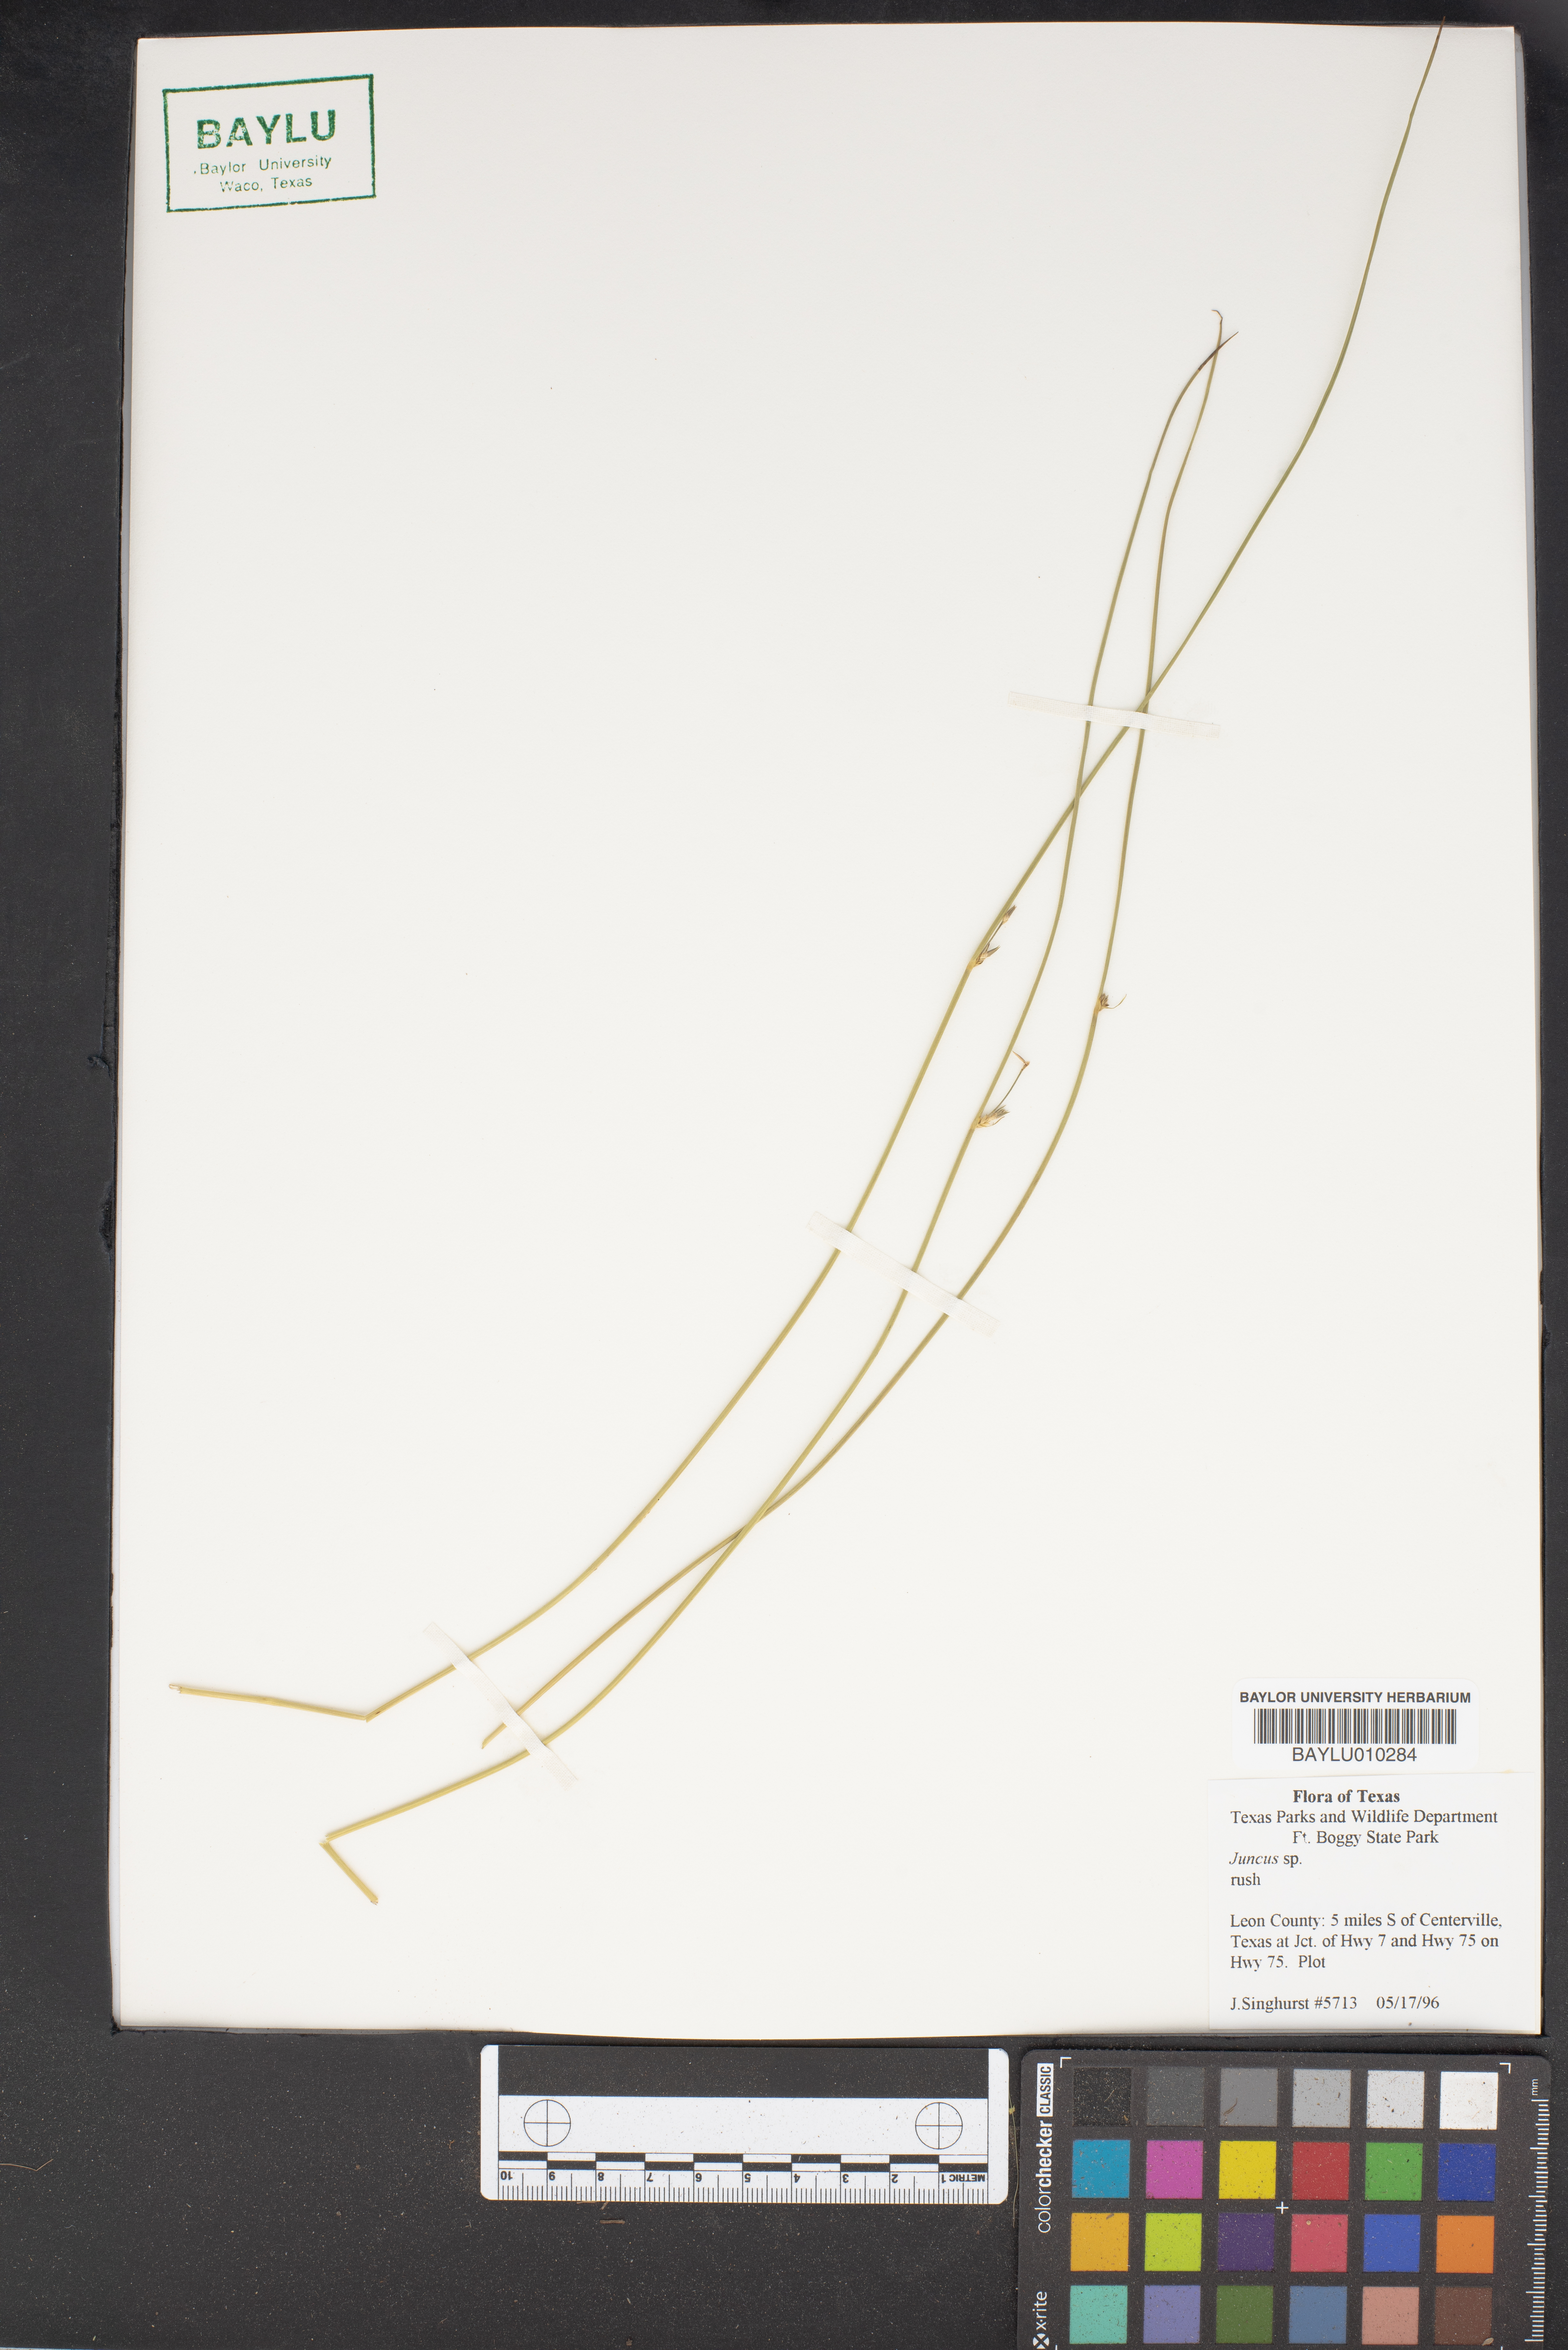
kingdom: Plantae
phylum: Tracheophyta
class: Liliopsida
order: Poales
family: Juncaceae
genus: Juncus
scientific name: Juncus
